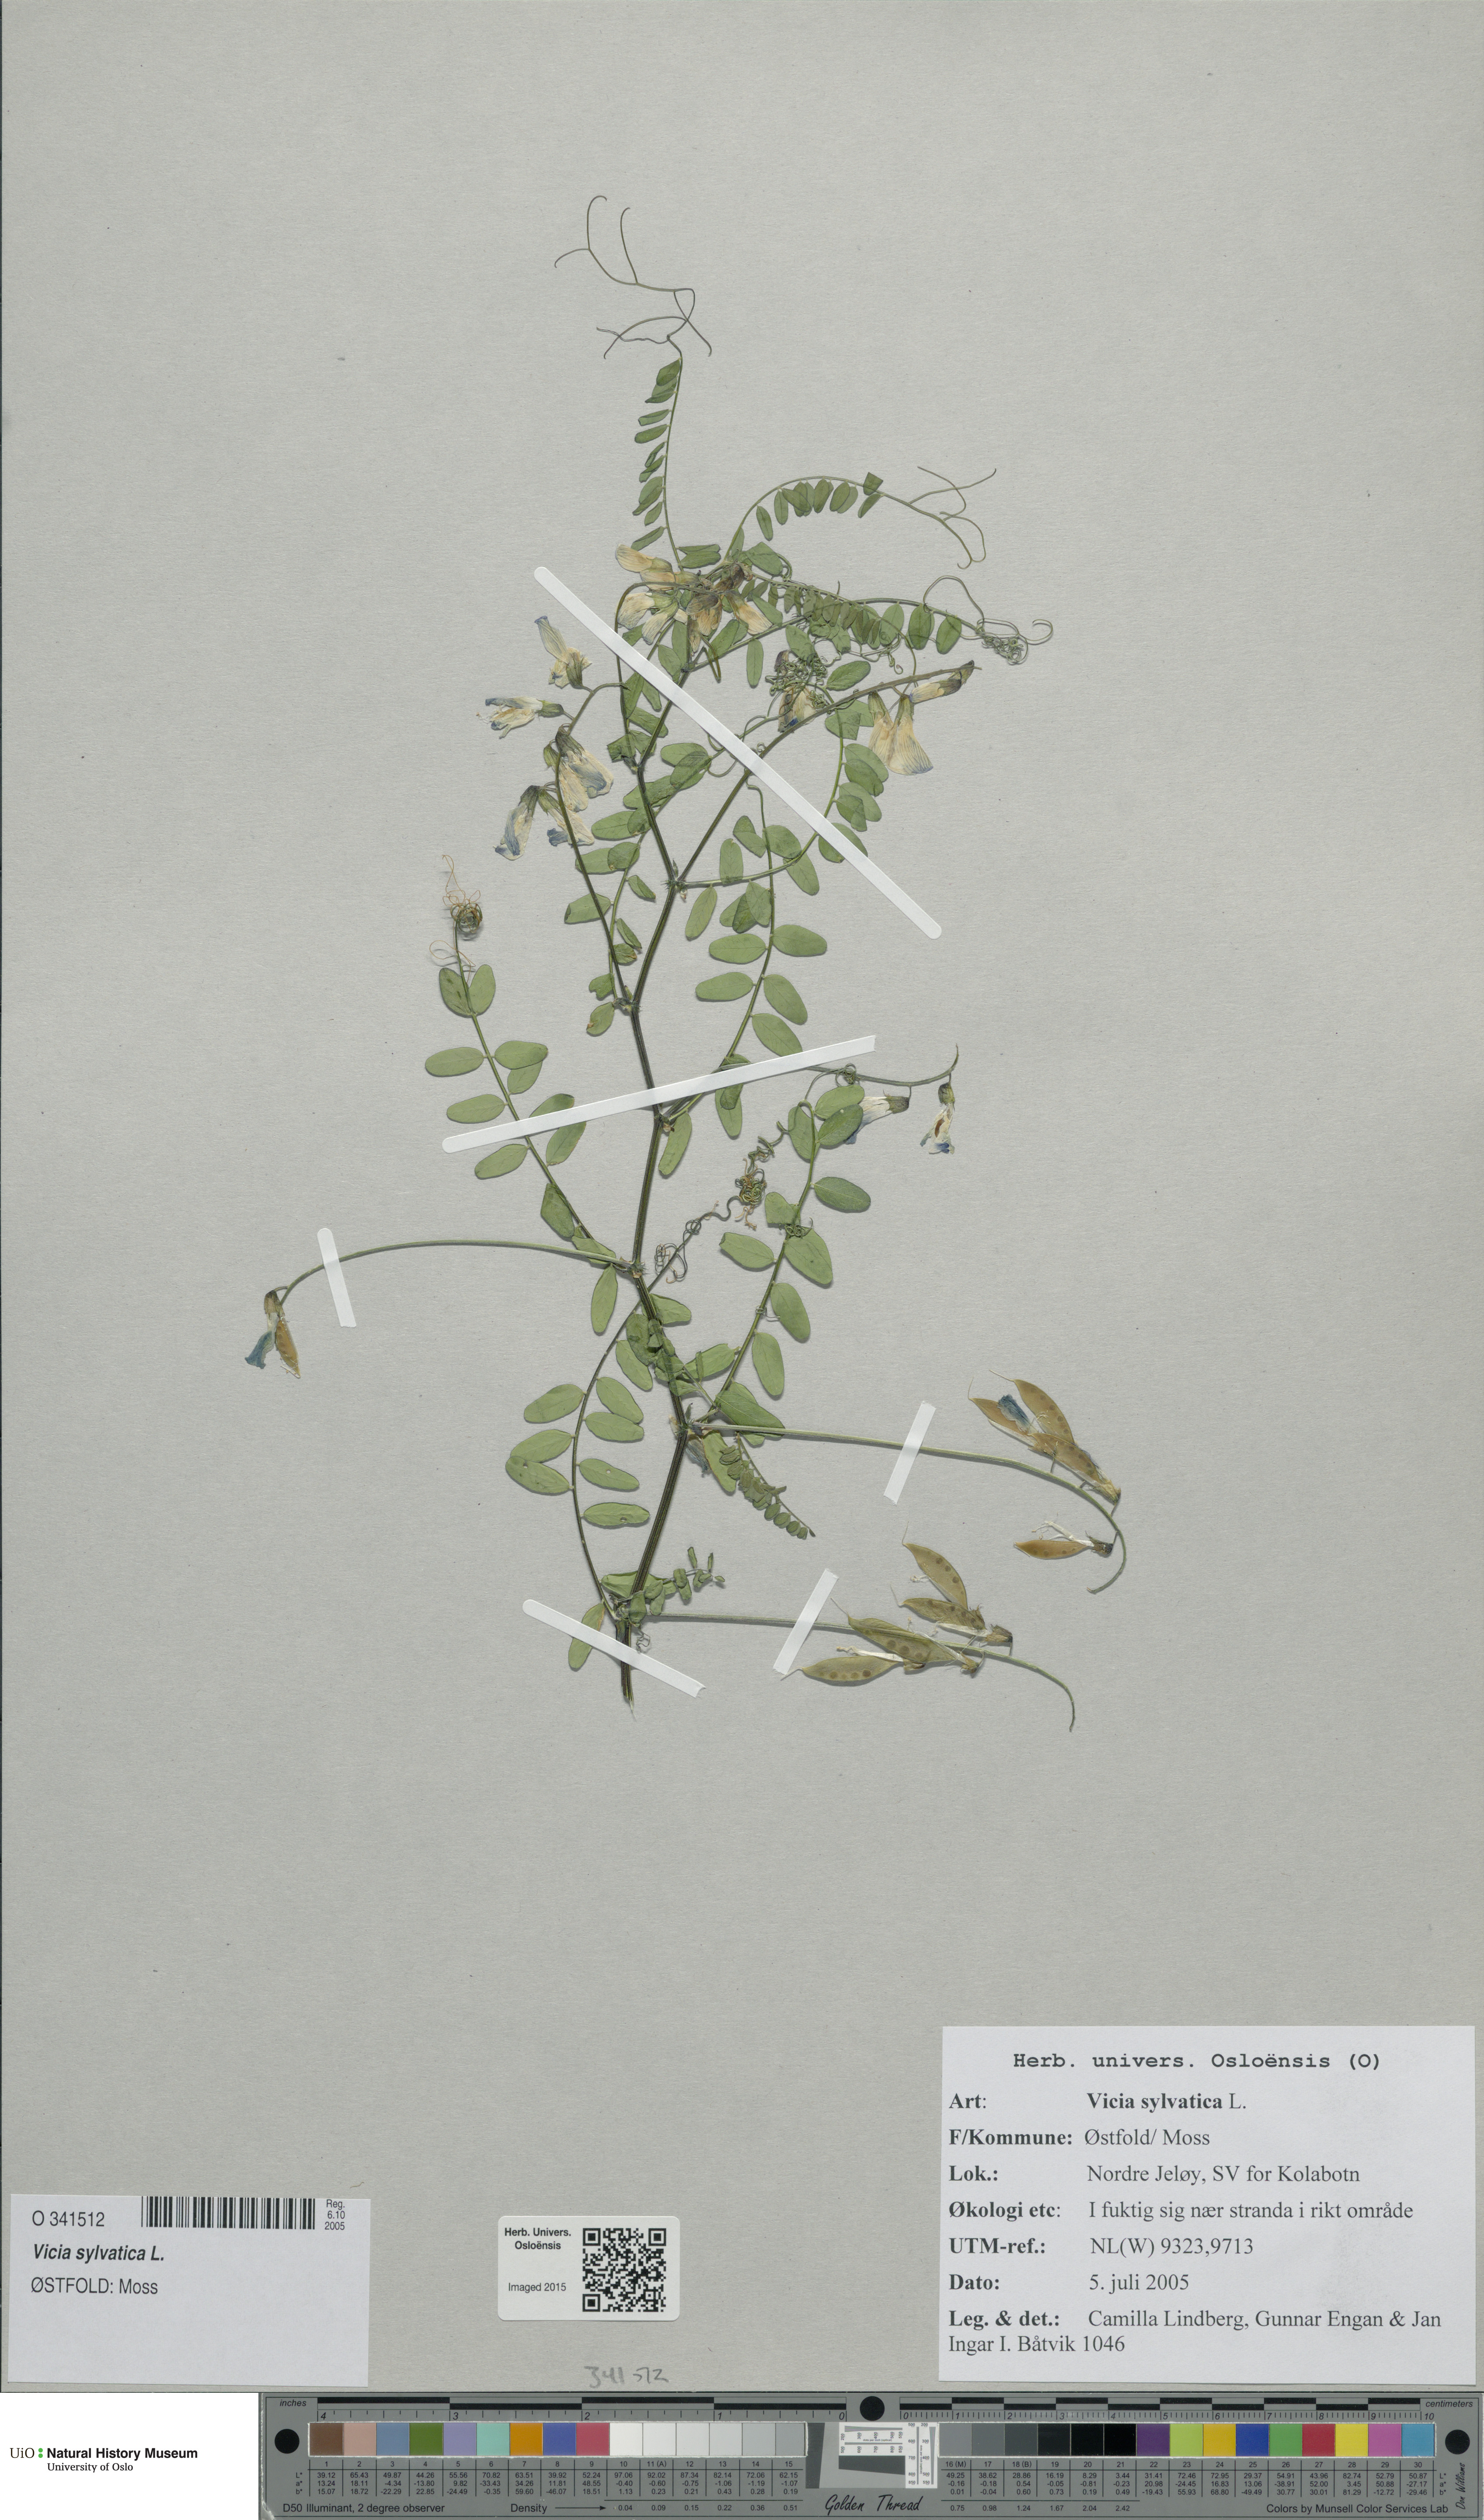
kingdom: Plantae
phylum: Tracheophyta
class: Magnoliopsida
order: Fabales
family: Fabaceae
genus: Vicia
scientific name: Vicia sylvatica
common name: Wood vetch
